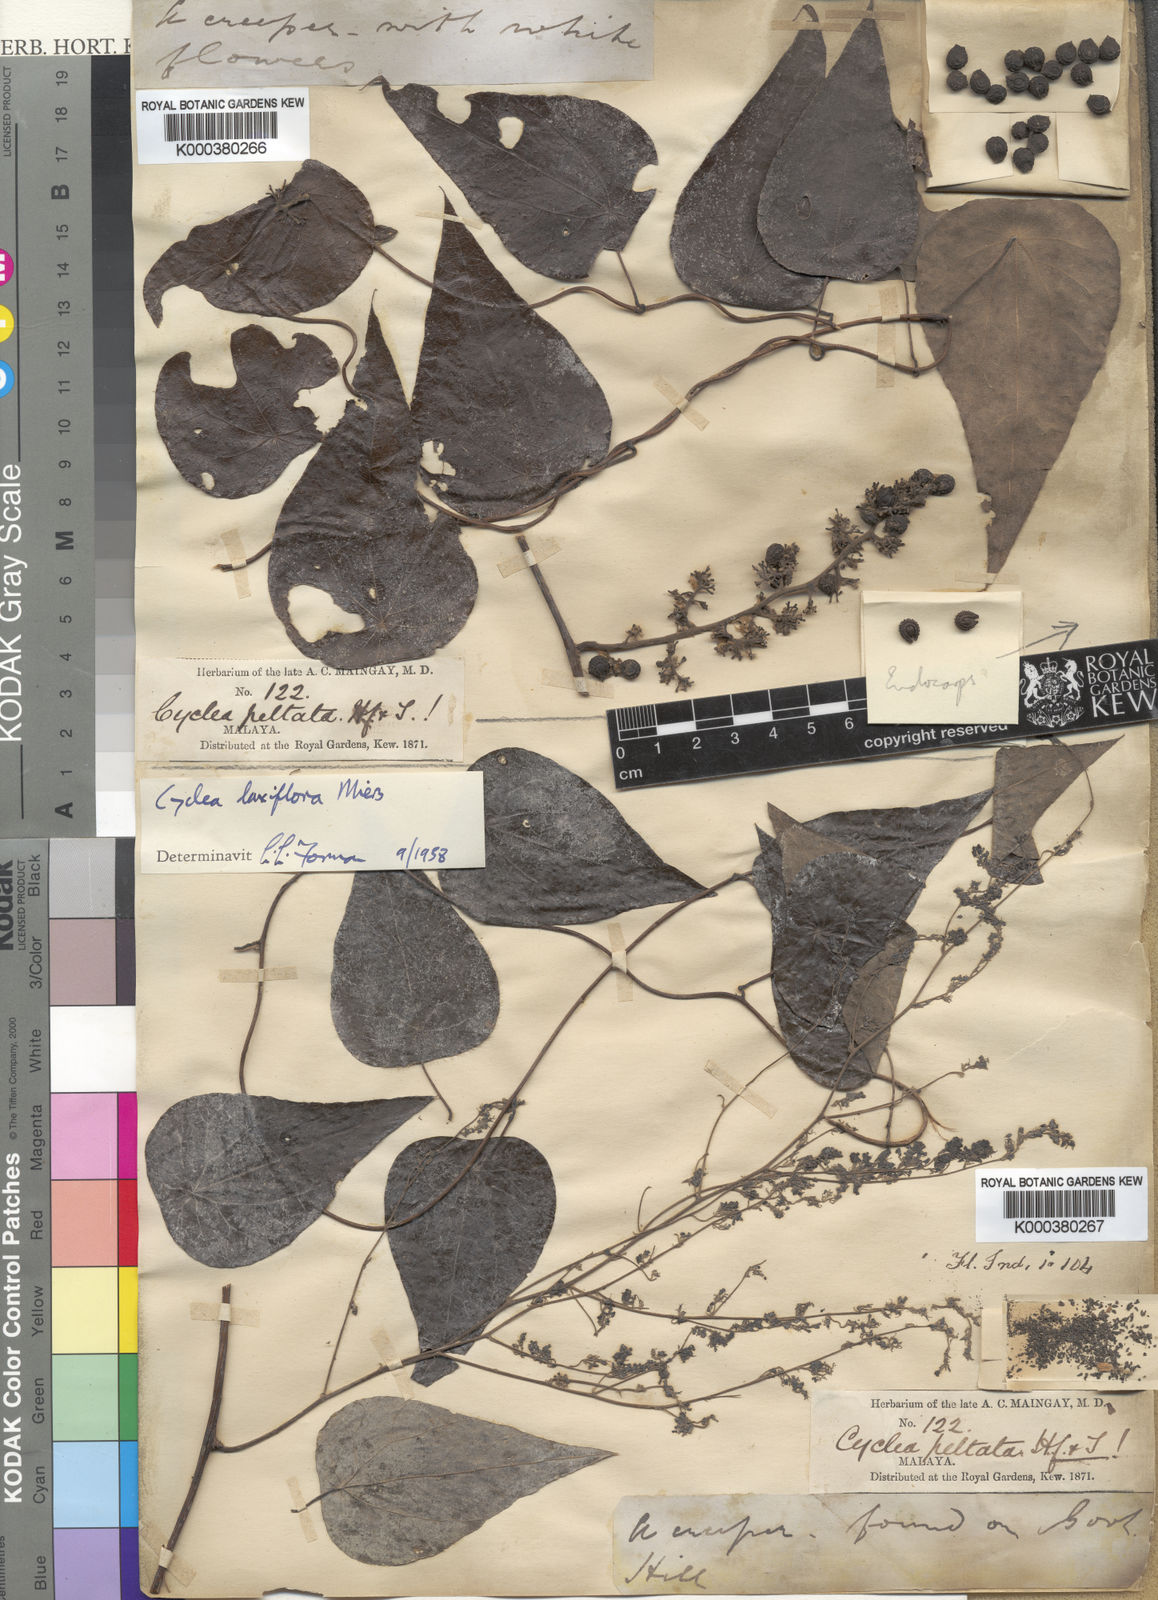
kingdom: Plantae
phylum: Tracheophyta
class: Magnoliopsida
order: Ranunculales
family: Menispermaceae
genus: Cyclea
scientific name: Cyclea laxiflora
